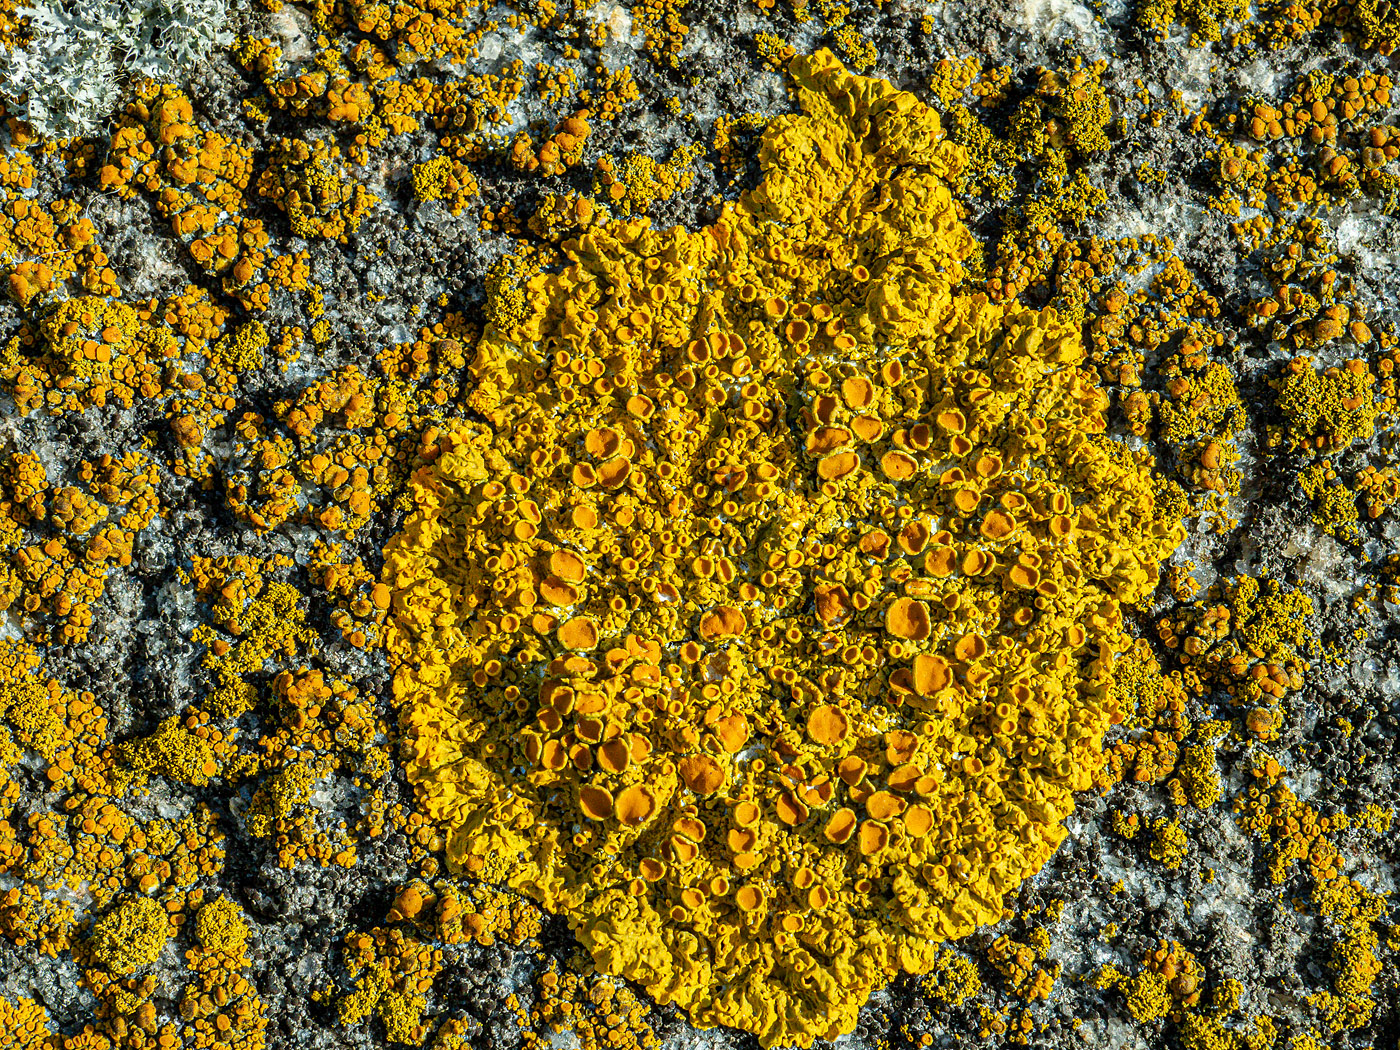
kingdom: Fungi
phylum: Ascomycota
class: Lecanoromycetes
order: Teloschistales
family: Teloschistaceae
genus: Xanthoria
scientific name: Xanthoria parietina
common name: almindelig væggelav
